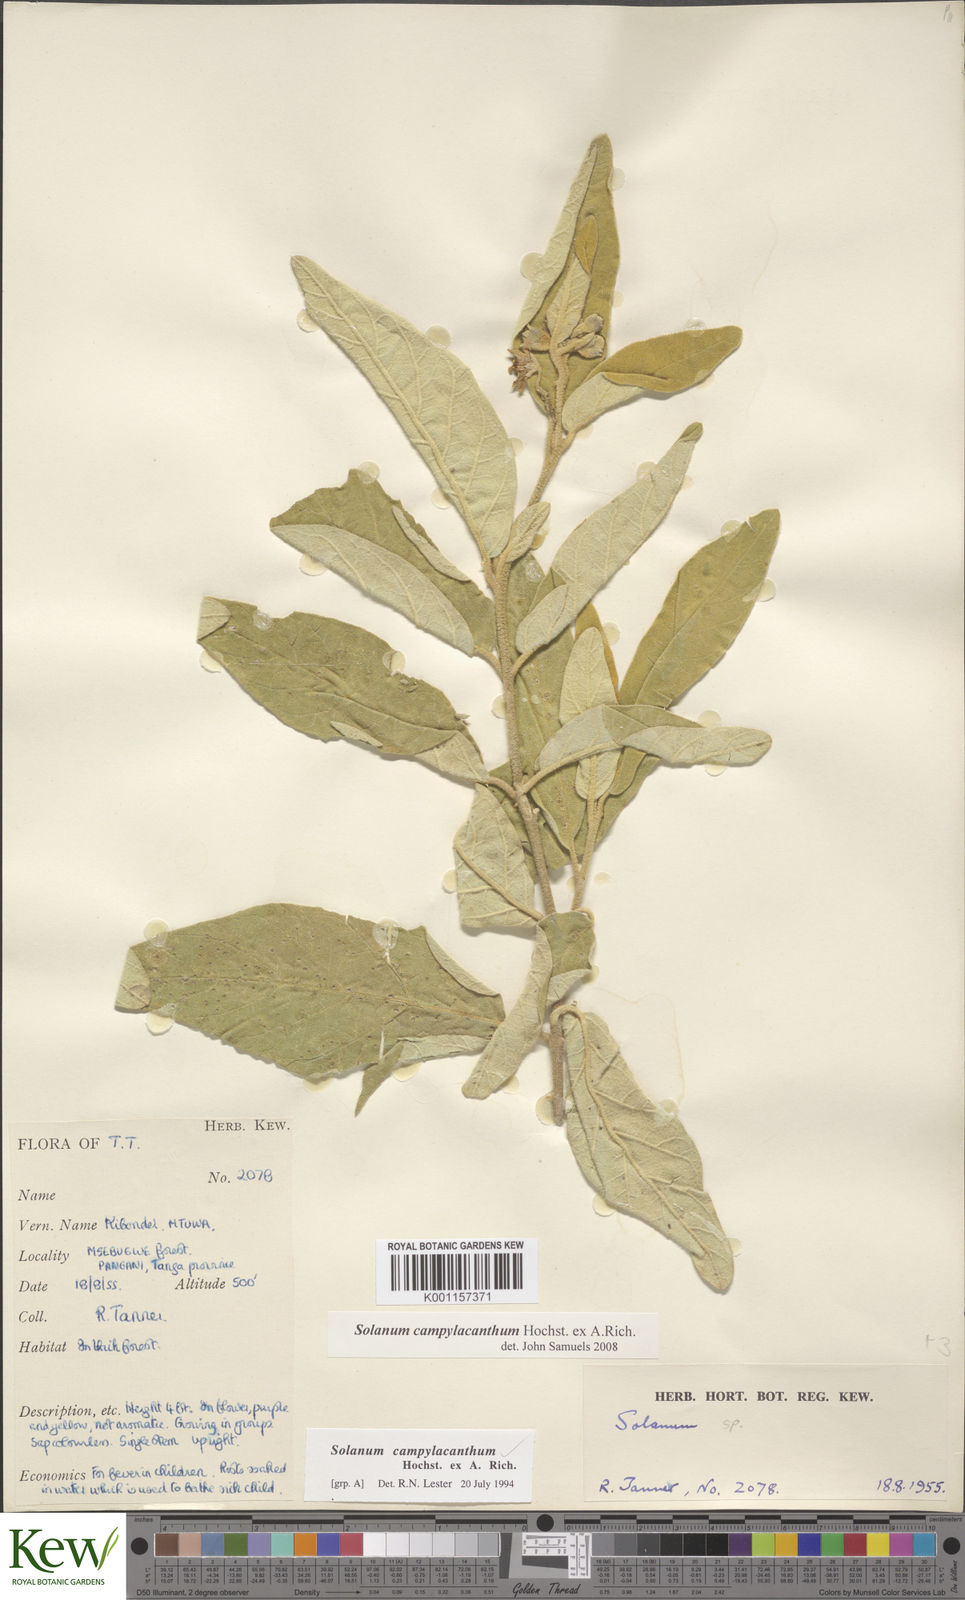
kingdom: Plantae
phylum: Tracheophyta
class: Magnoliopsida
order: Solanales
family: Solanaceae
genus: Solanum
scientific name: Solanum campylacanthum
